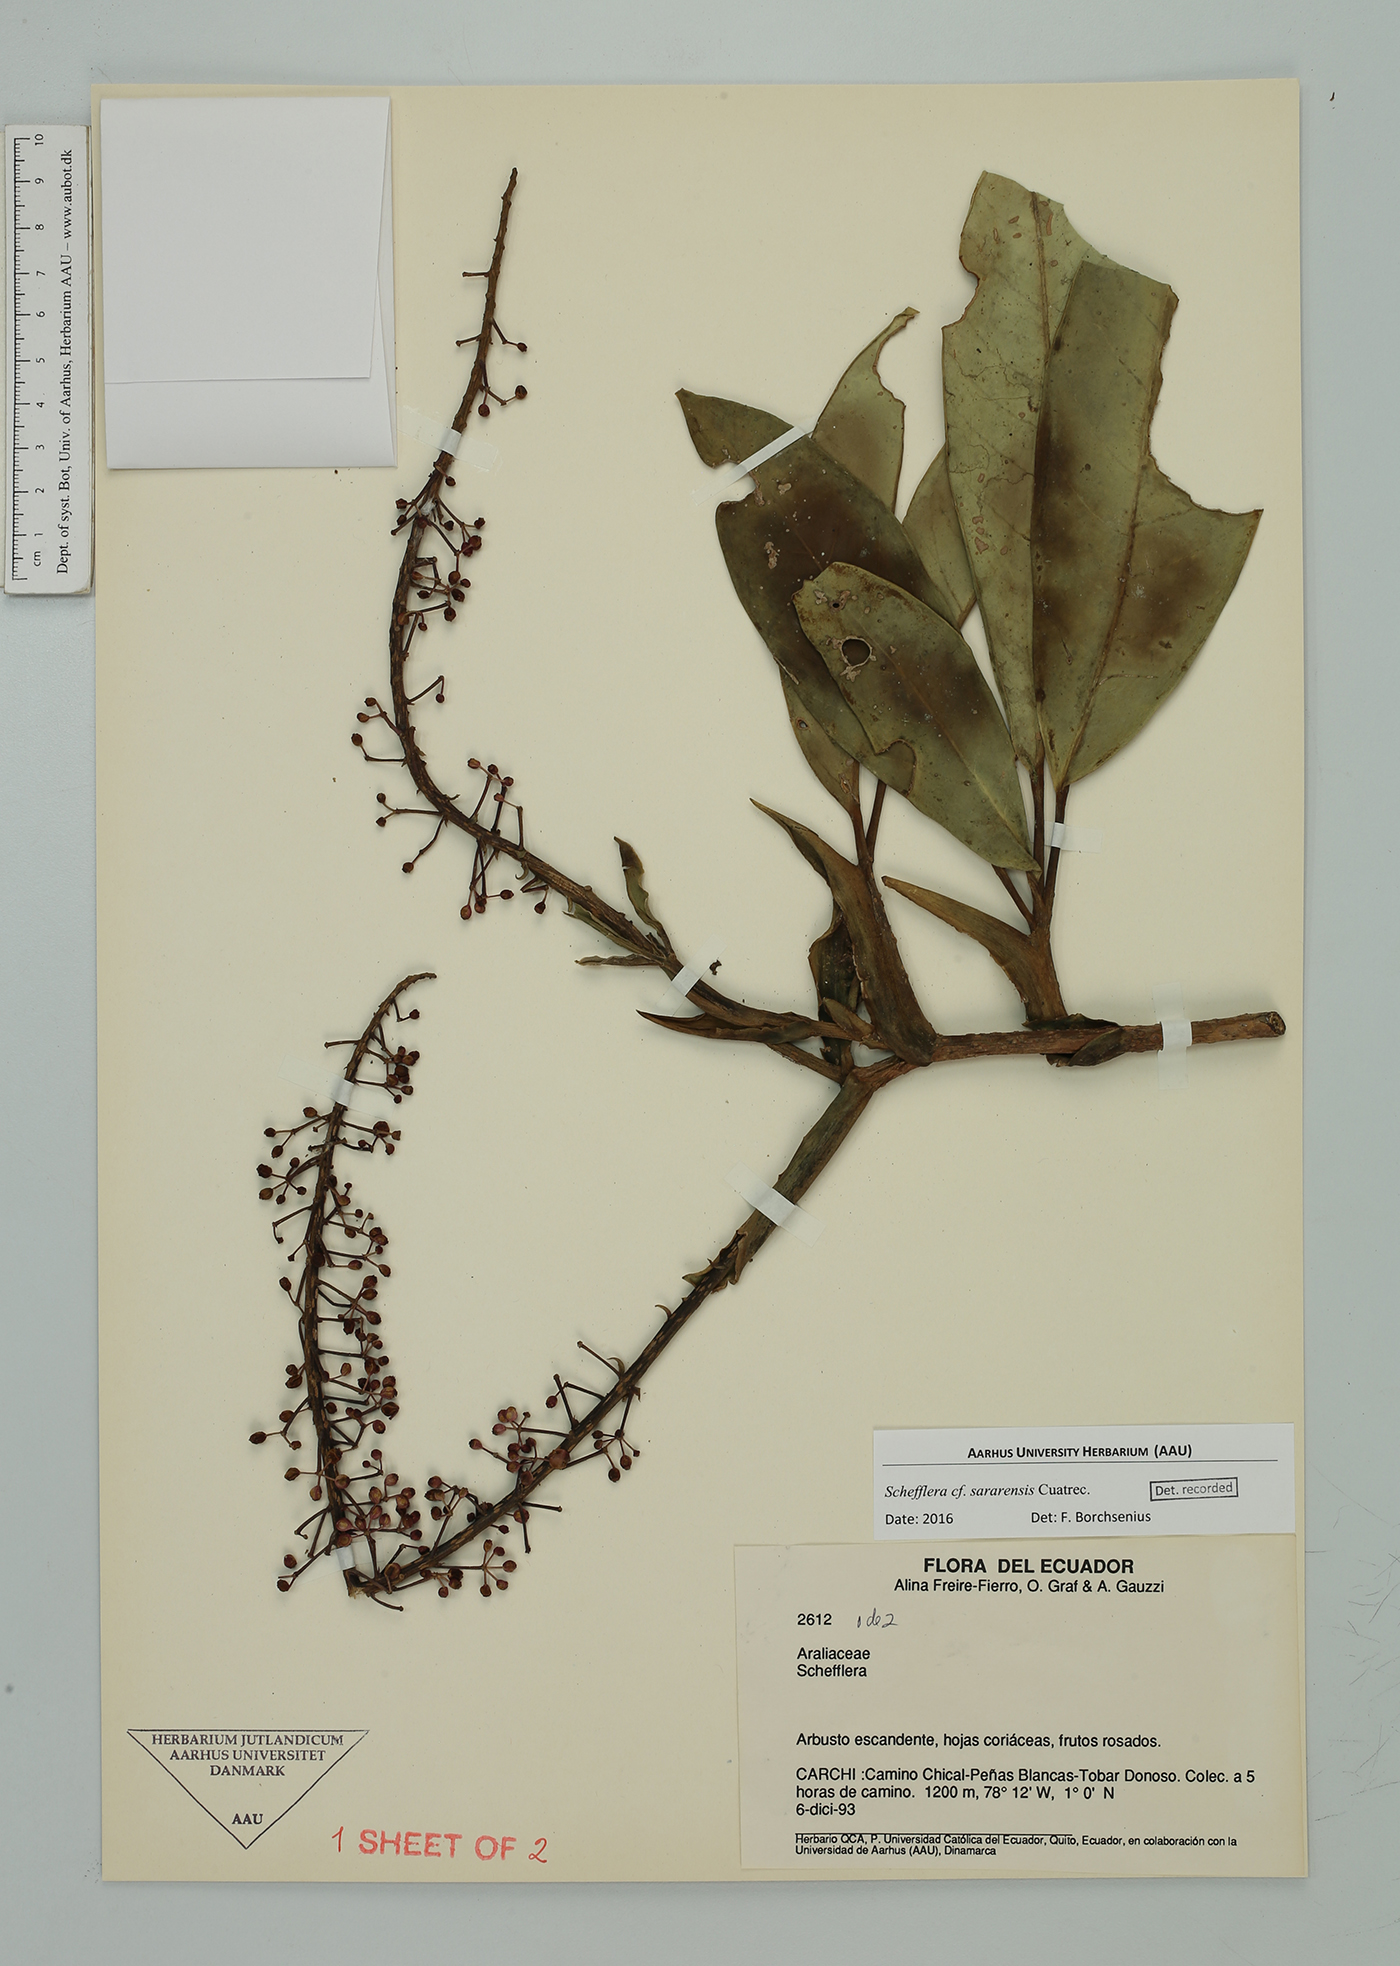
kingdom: Plantae
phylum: Tracheophyta
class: Magnoliopsida
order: Apiales
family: Araliaceae
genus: Sciodaphyllum
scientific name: Sciodaphyllum
